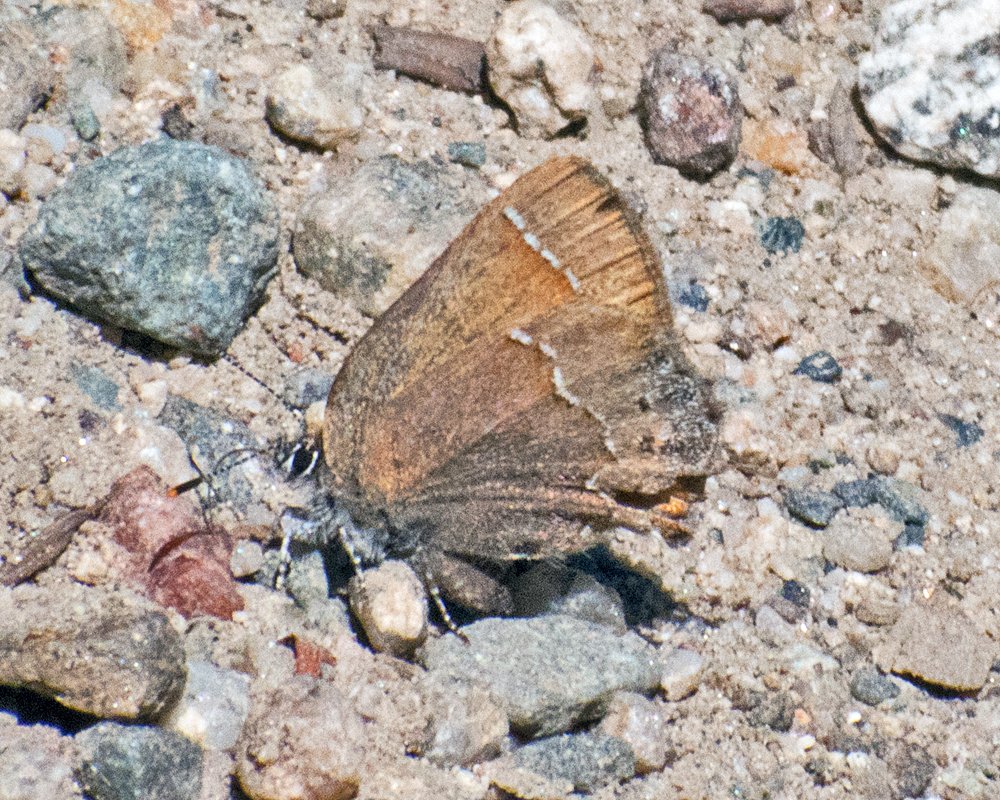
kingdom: Animalia
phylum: Arthropoda
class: Insecta
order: Lepidoptera
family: Lycaenidae
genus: Mitoura
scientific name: Mitoura nelsoni
